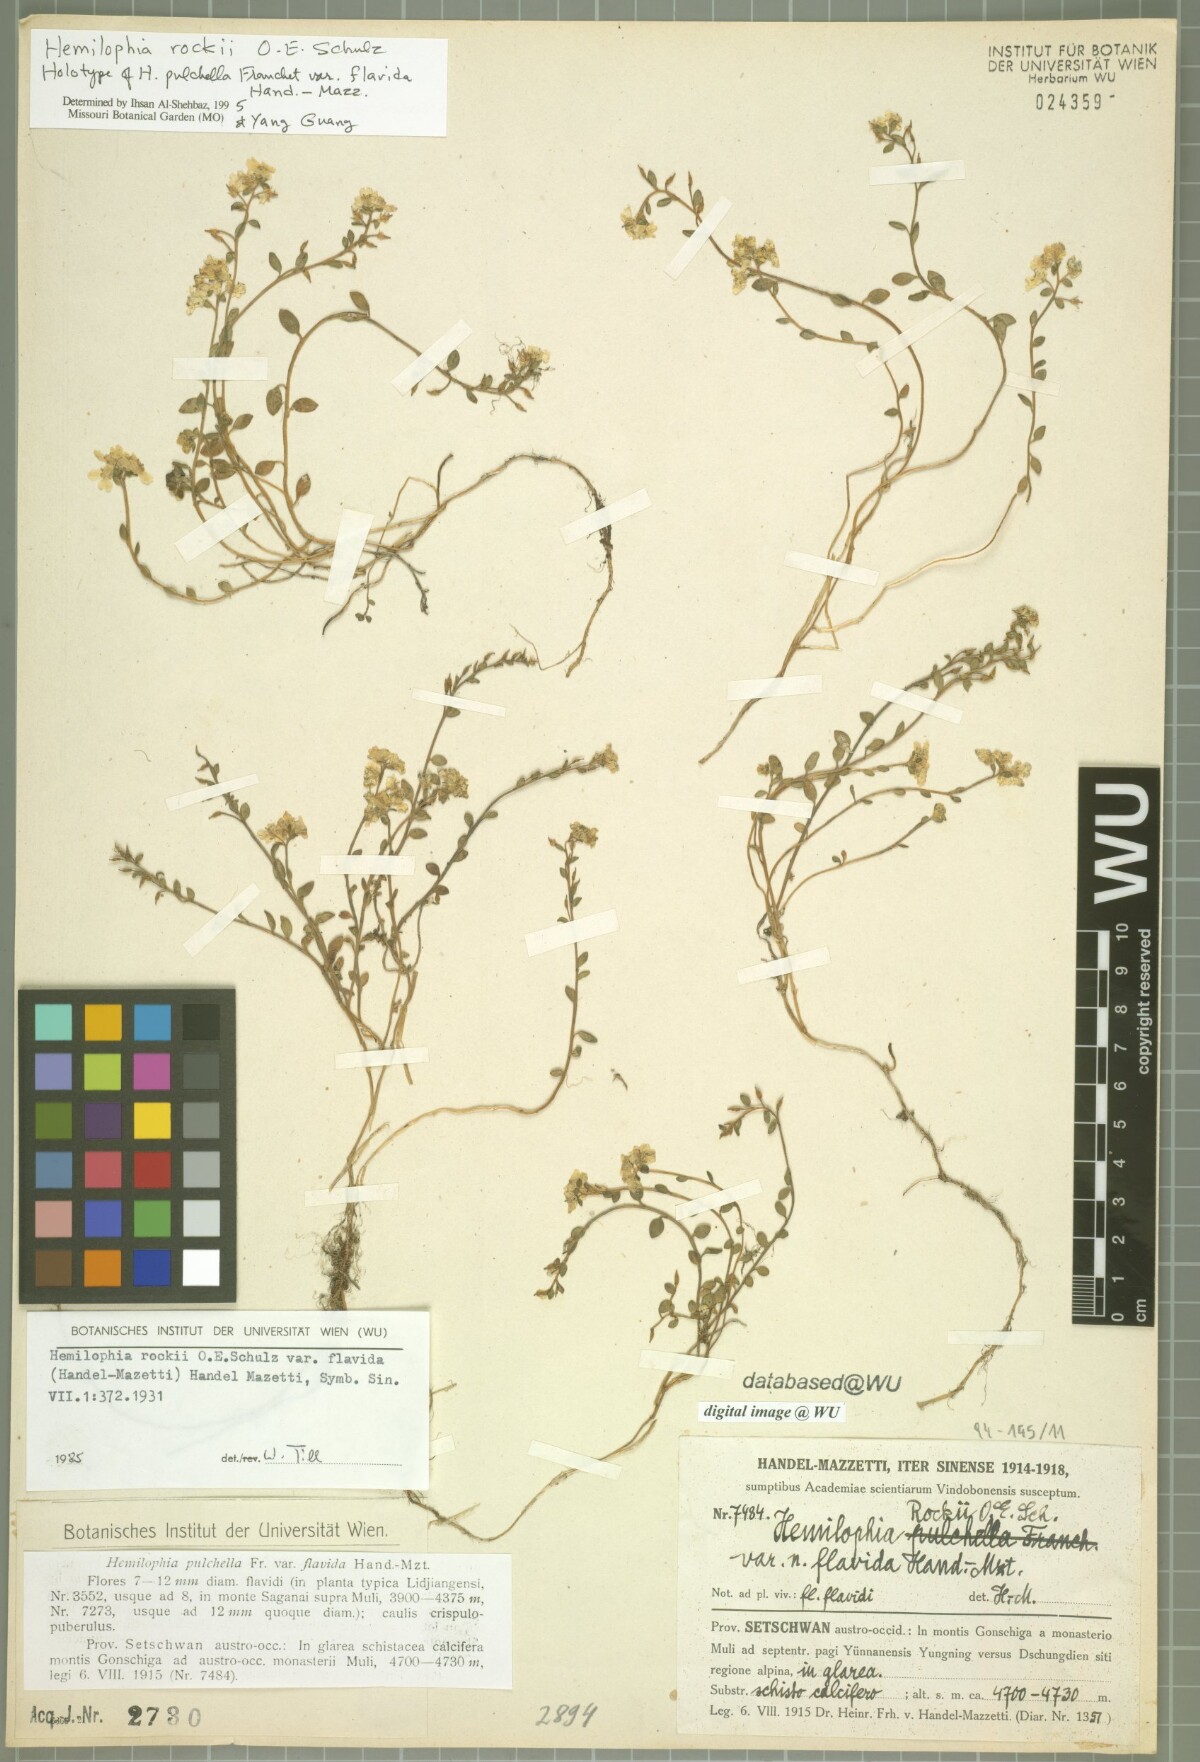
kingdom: Plantae
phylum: Tracheophyta
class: Magnoliopsida
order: Brassicales
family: Brassicaceae
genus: Hemilophia
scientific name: Hemilophia rockii
